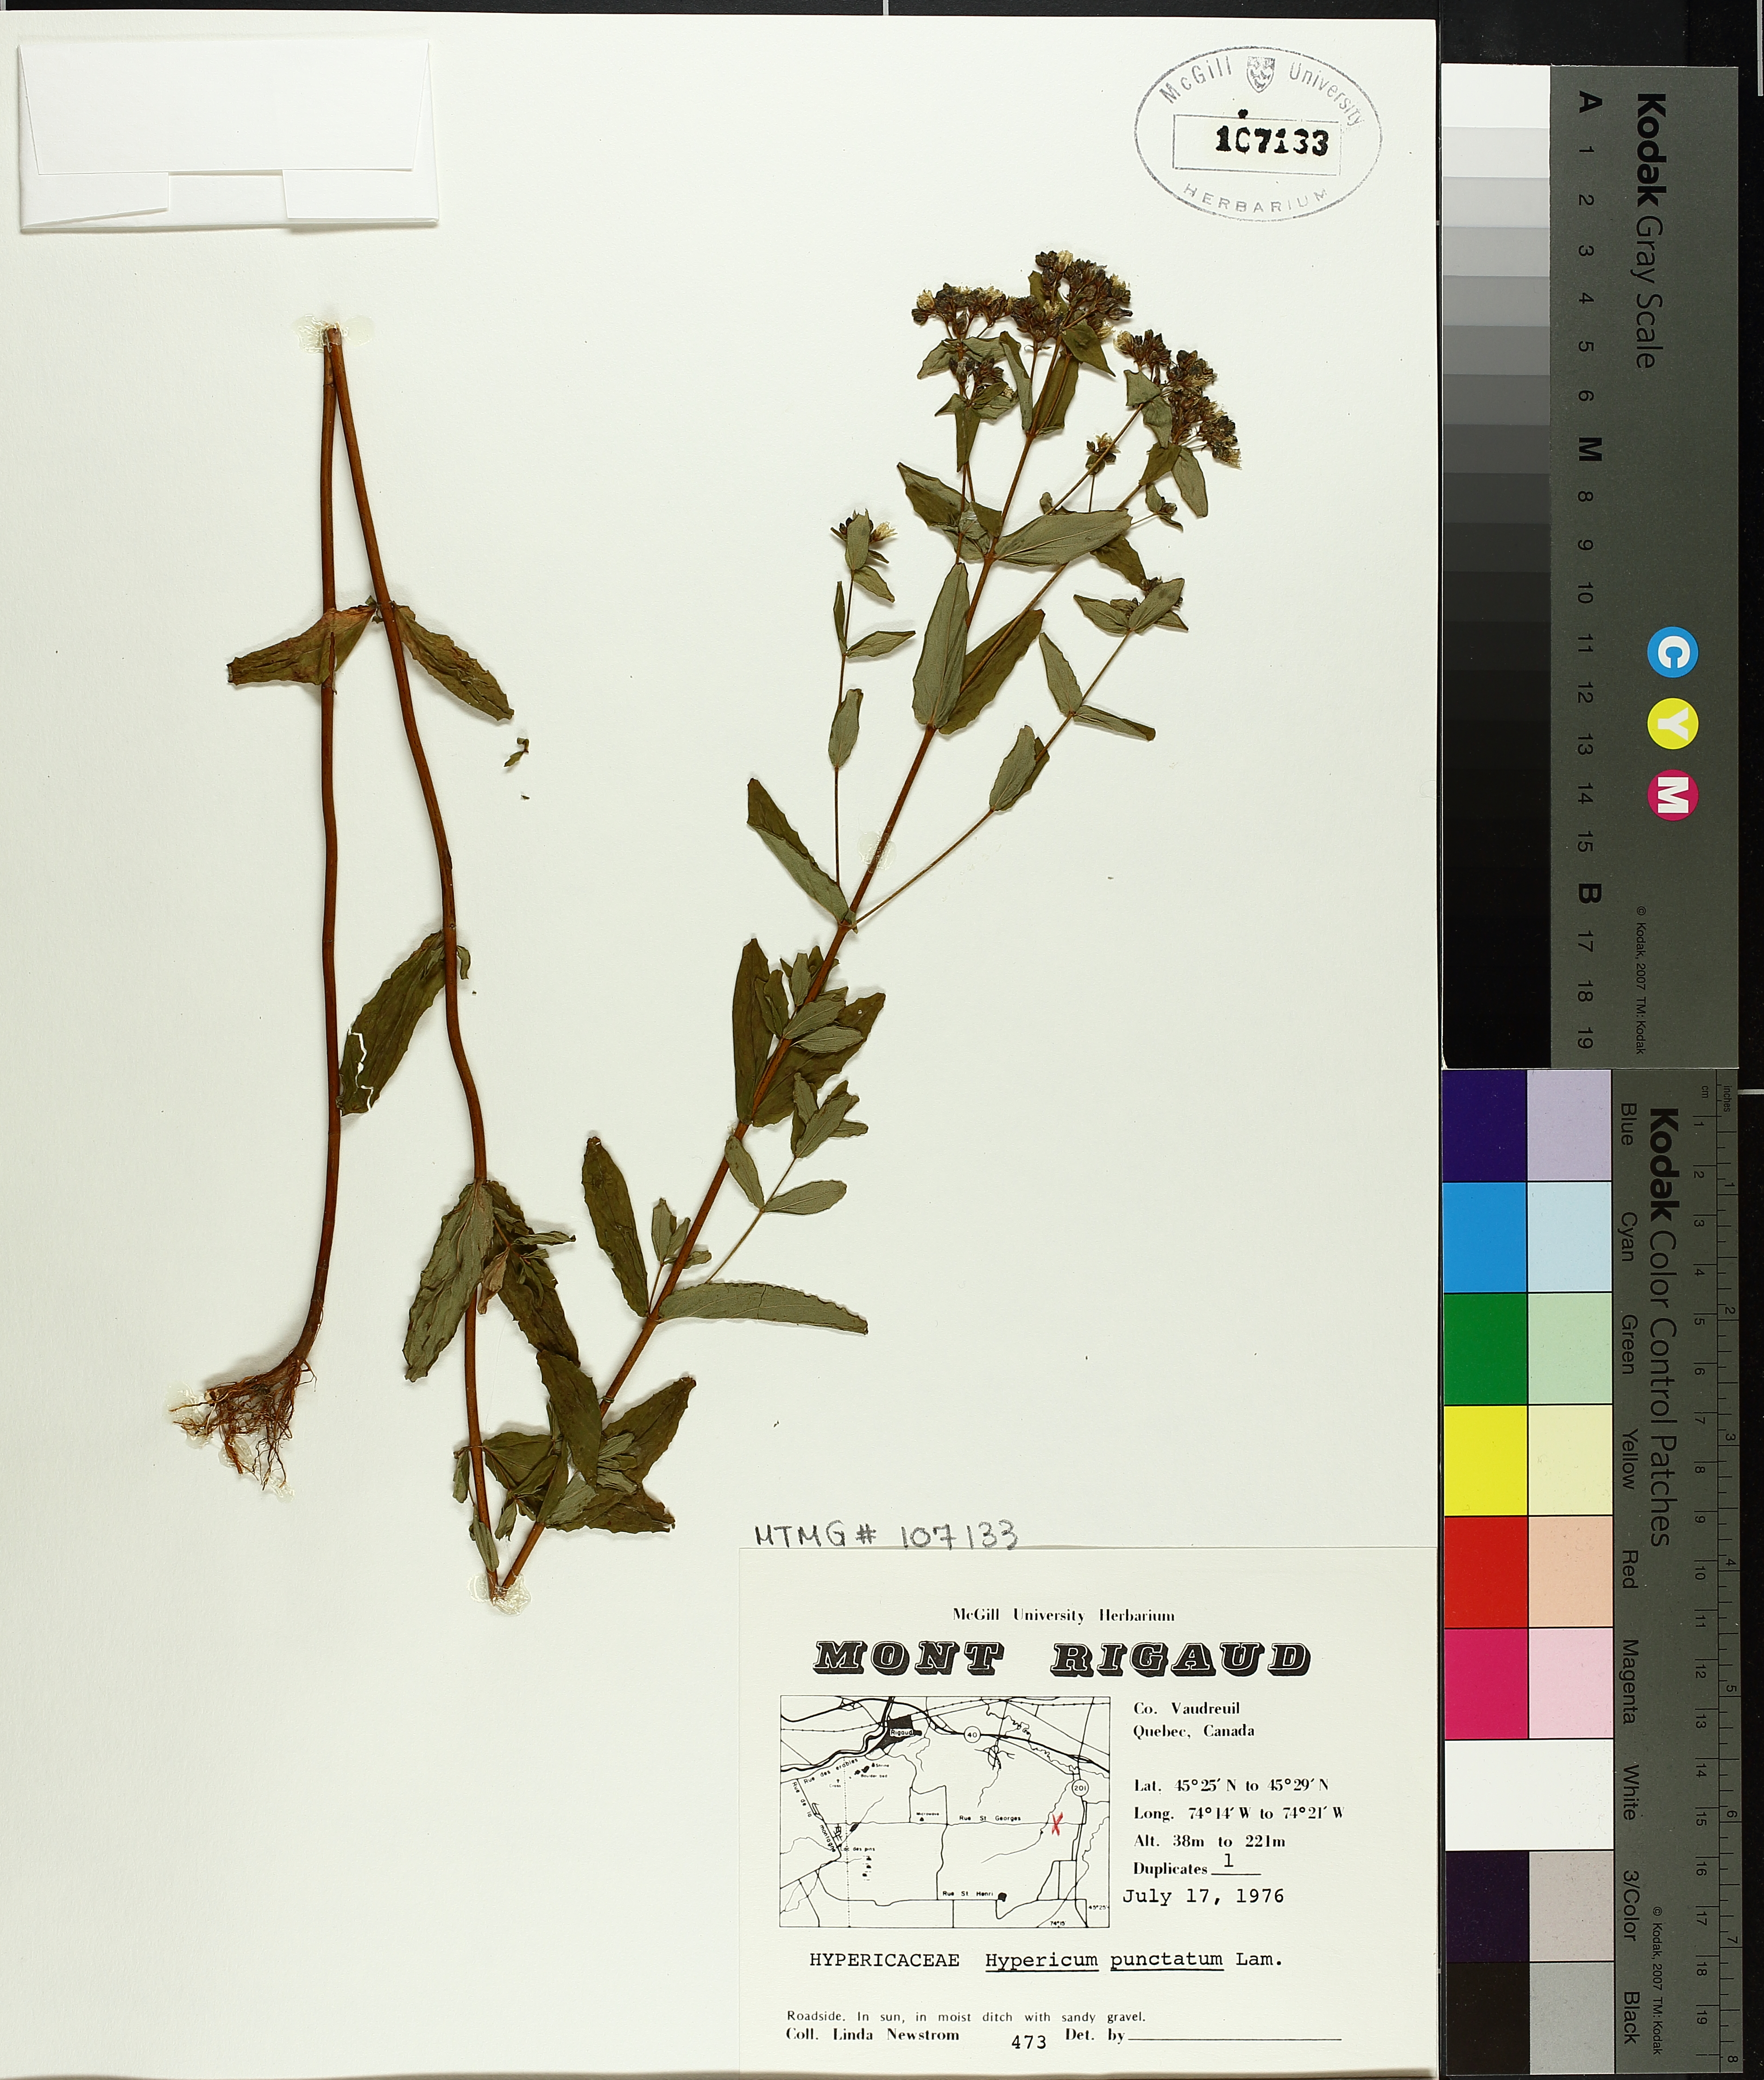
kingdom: Plantae
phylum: Tracheophyta
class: Magnoliopsida
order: Malpighiales
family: Hypericaceae
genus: Hypericum
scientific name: Hypericum punctatum
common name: Spotted st. john's-wort
